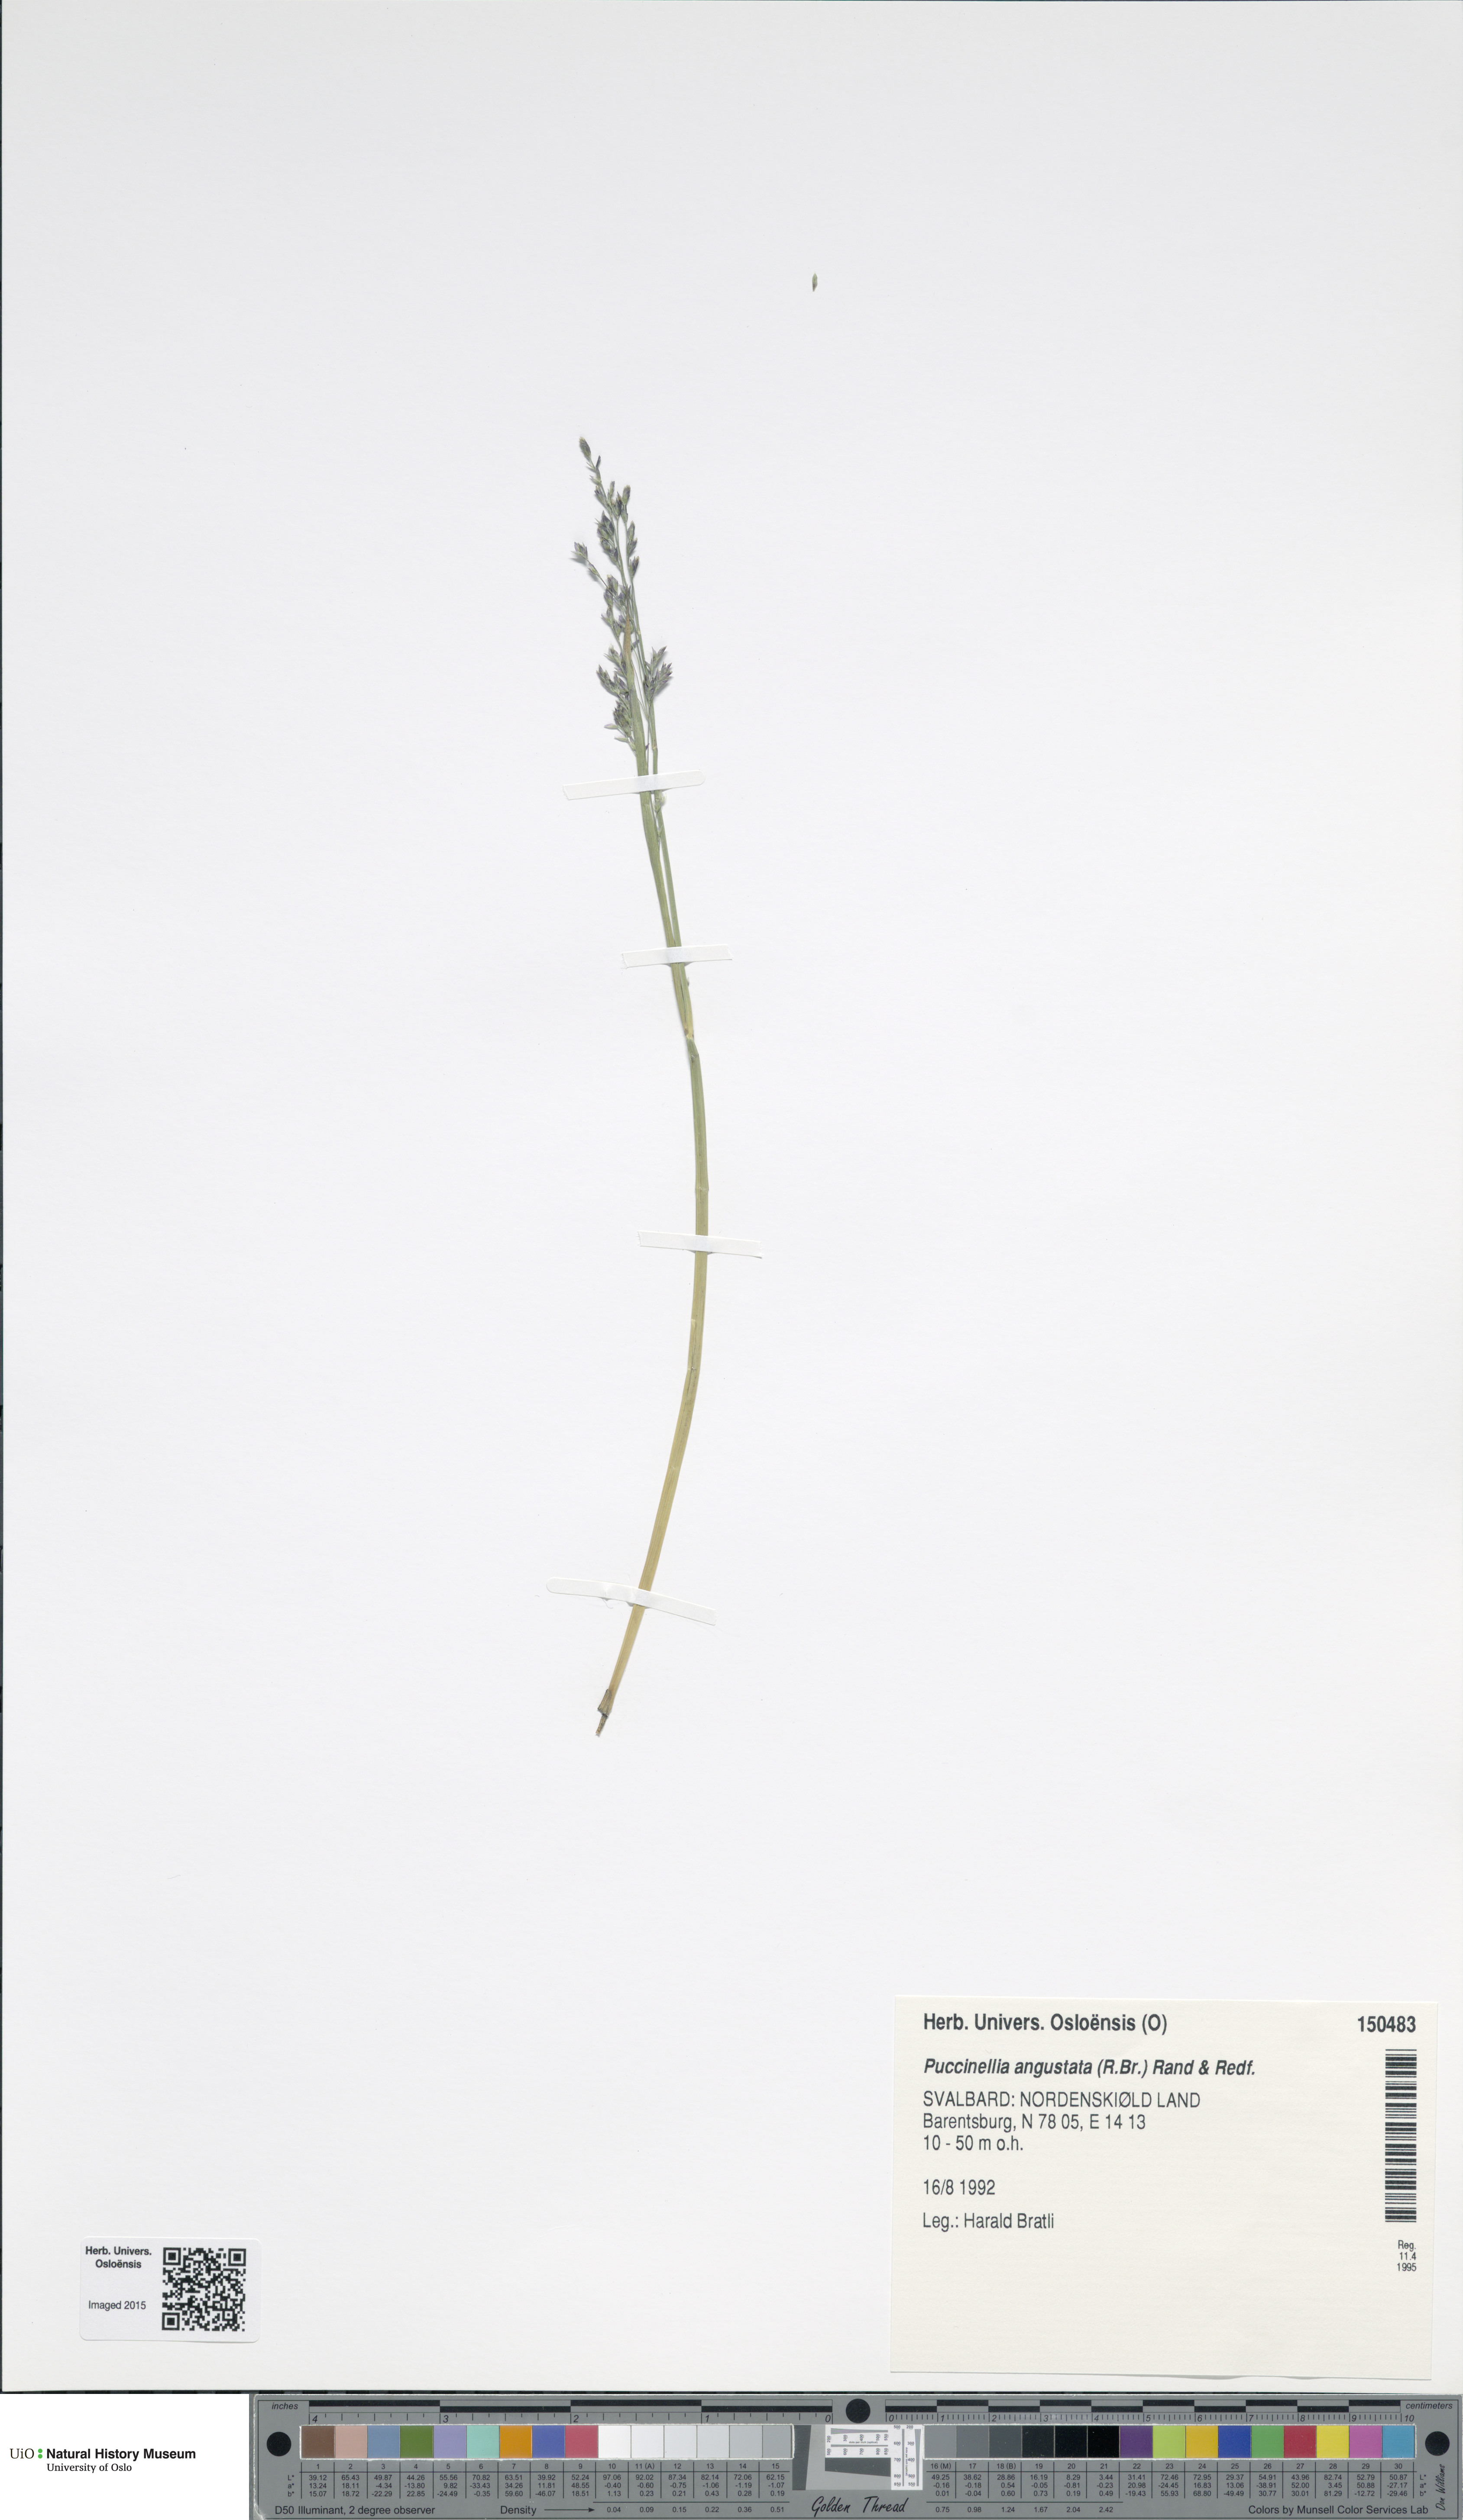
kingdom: Plantae
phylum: Tracheophyta
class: Liliopsida
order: Poales
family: Poaceae
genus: Puccinellia
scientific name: Puccinellia angustata
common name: Narrow alkaligrass
